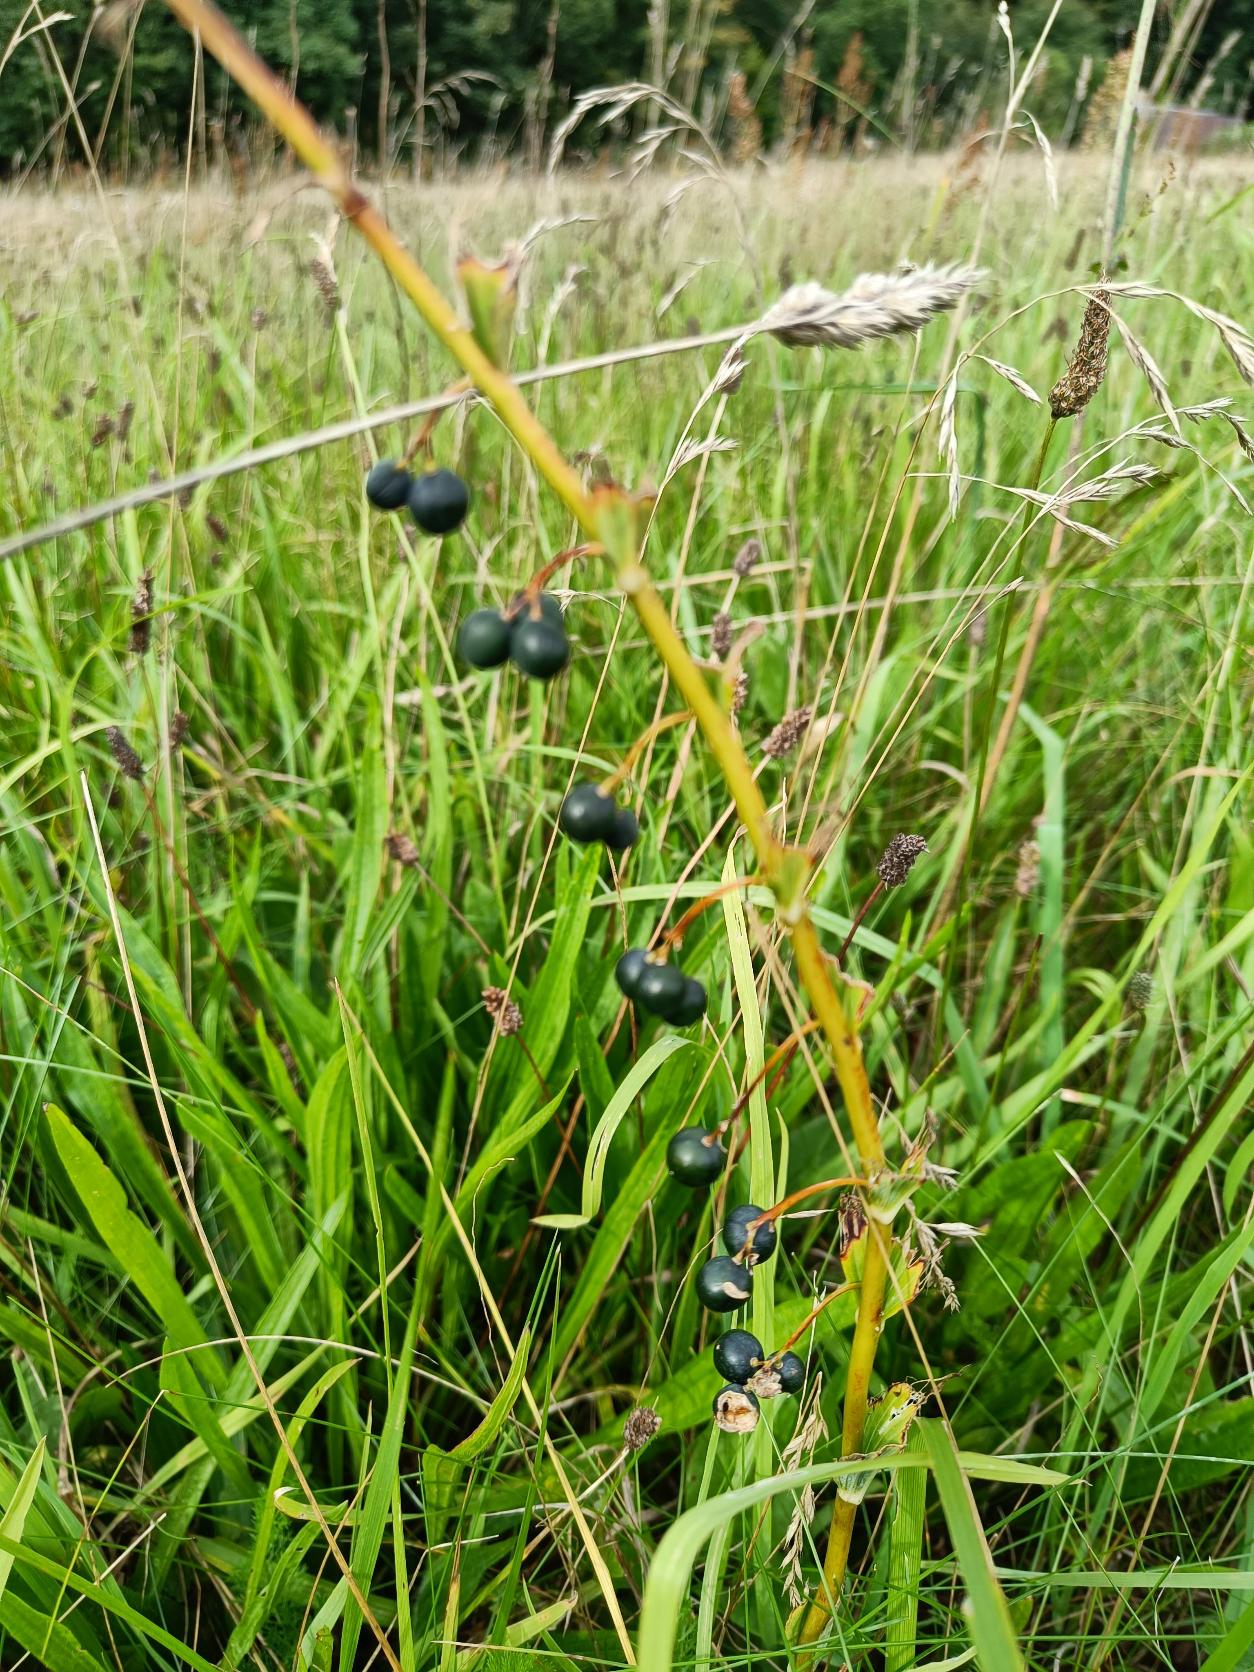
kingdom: Plantae
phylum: Tracheophyta
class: Liliopsida
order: Asparagales
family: Asparagaceae
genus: Polygonatum
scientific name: Polygonatum multiflorum
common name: Stor konval
